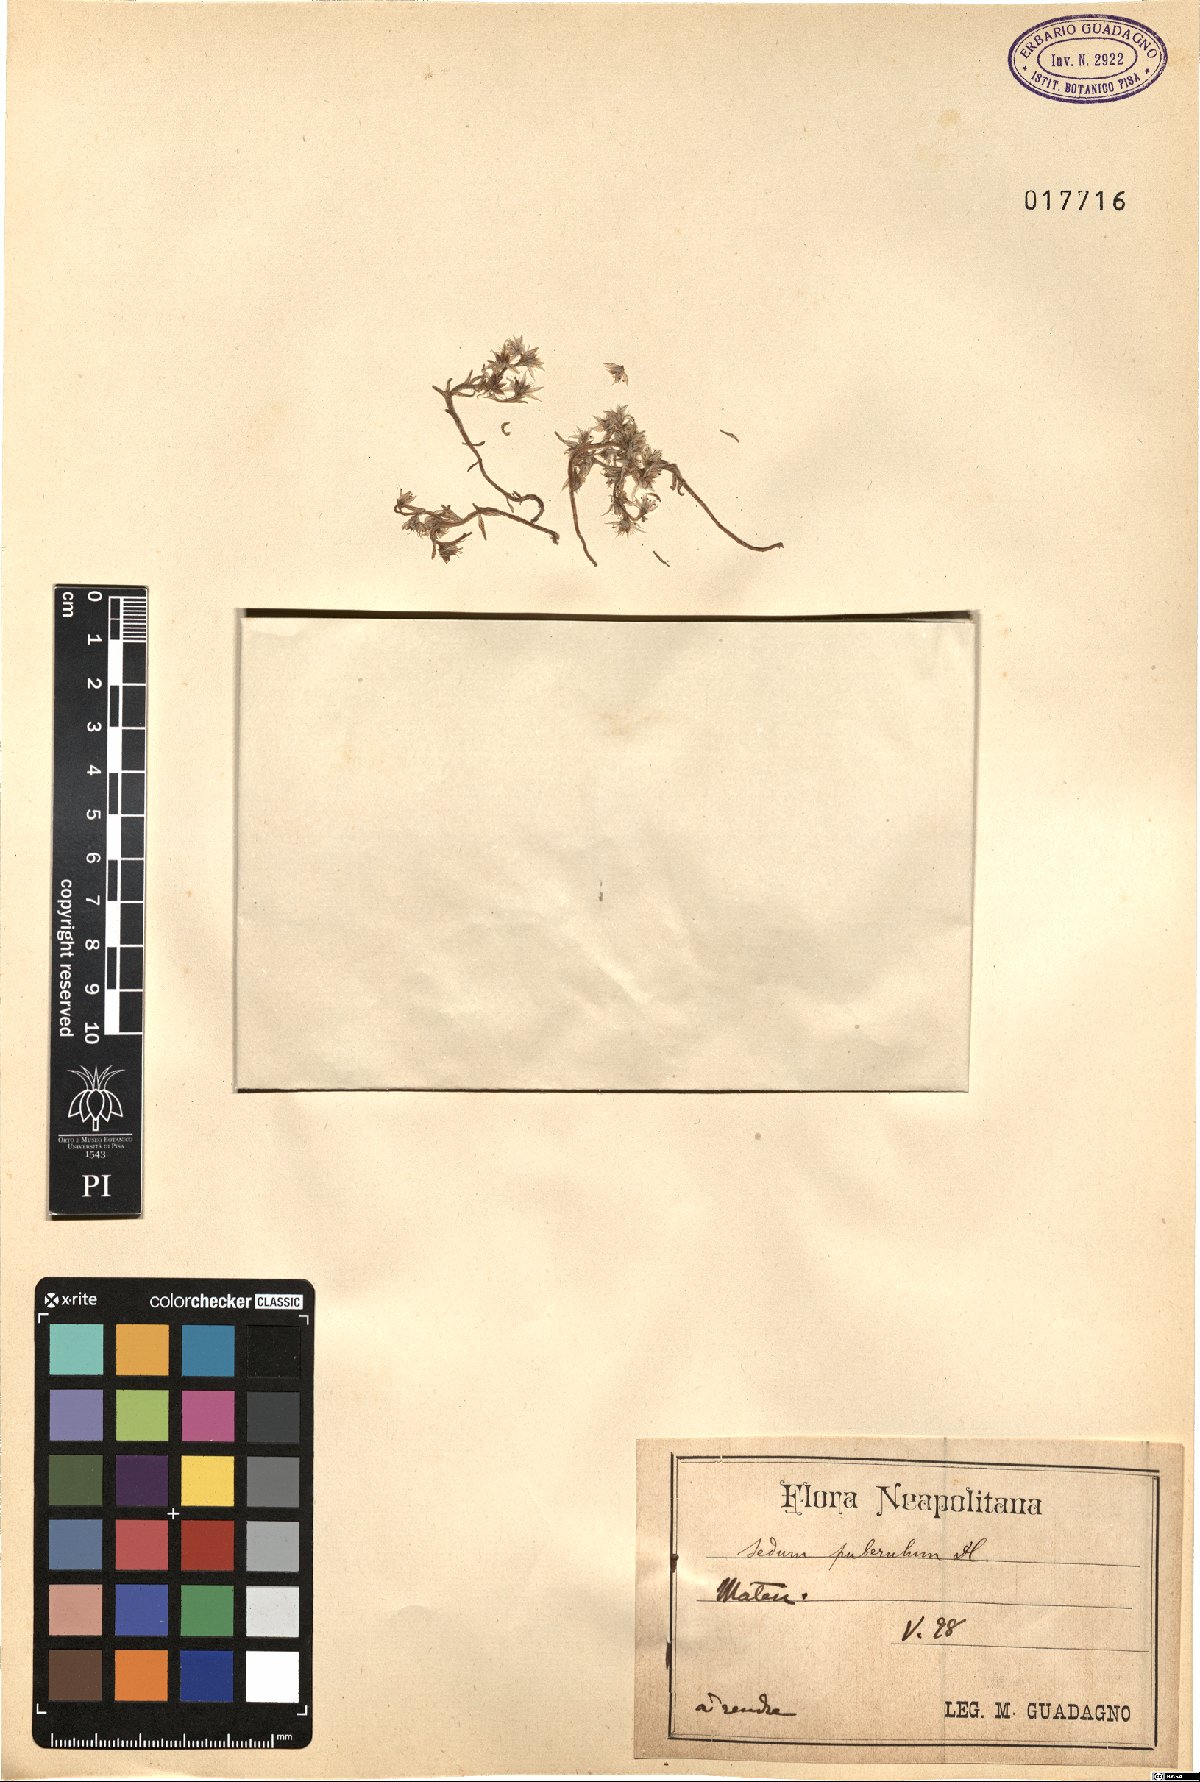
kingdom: Plantae
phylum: Tracheophyta
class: Magnoliopsida
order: Saxifragales
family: Crassulaceae
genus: Sedum
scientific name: Sedum hispanicum
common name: Spanish stonecrop
